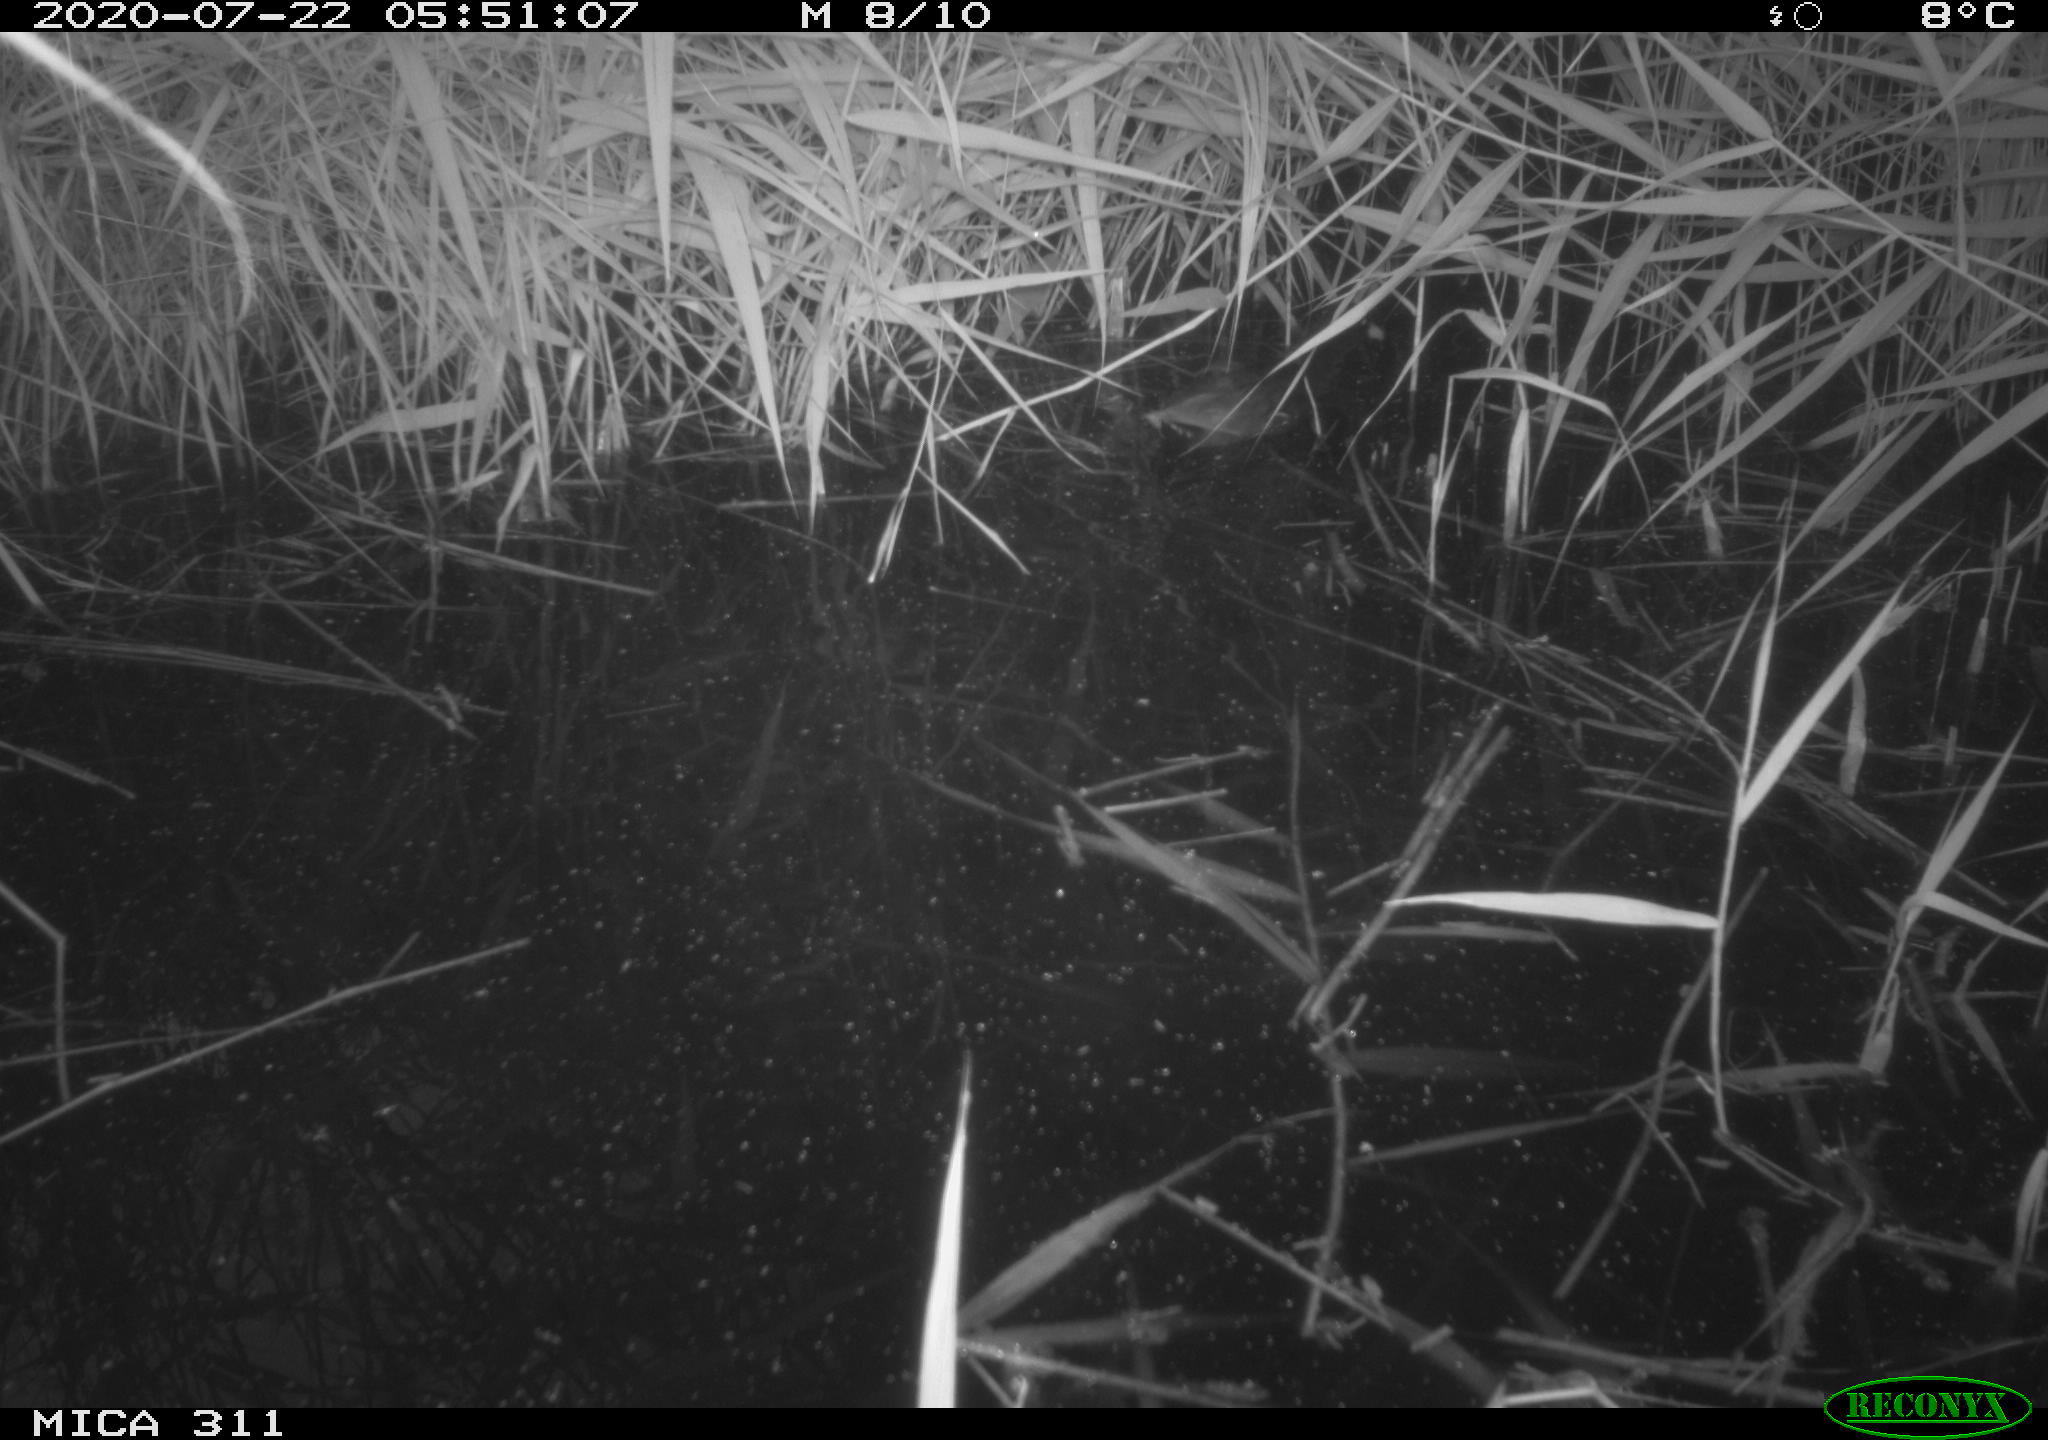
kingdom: Animalia
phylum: Chordata
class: Aves
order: Anseriformes
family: Anatidae
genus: Anas
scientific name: Anas platyrhynchos
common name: Mallard
